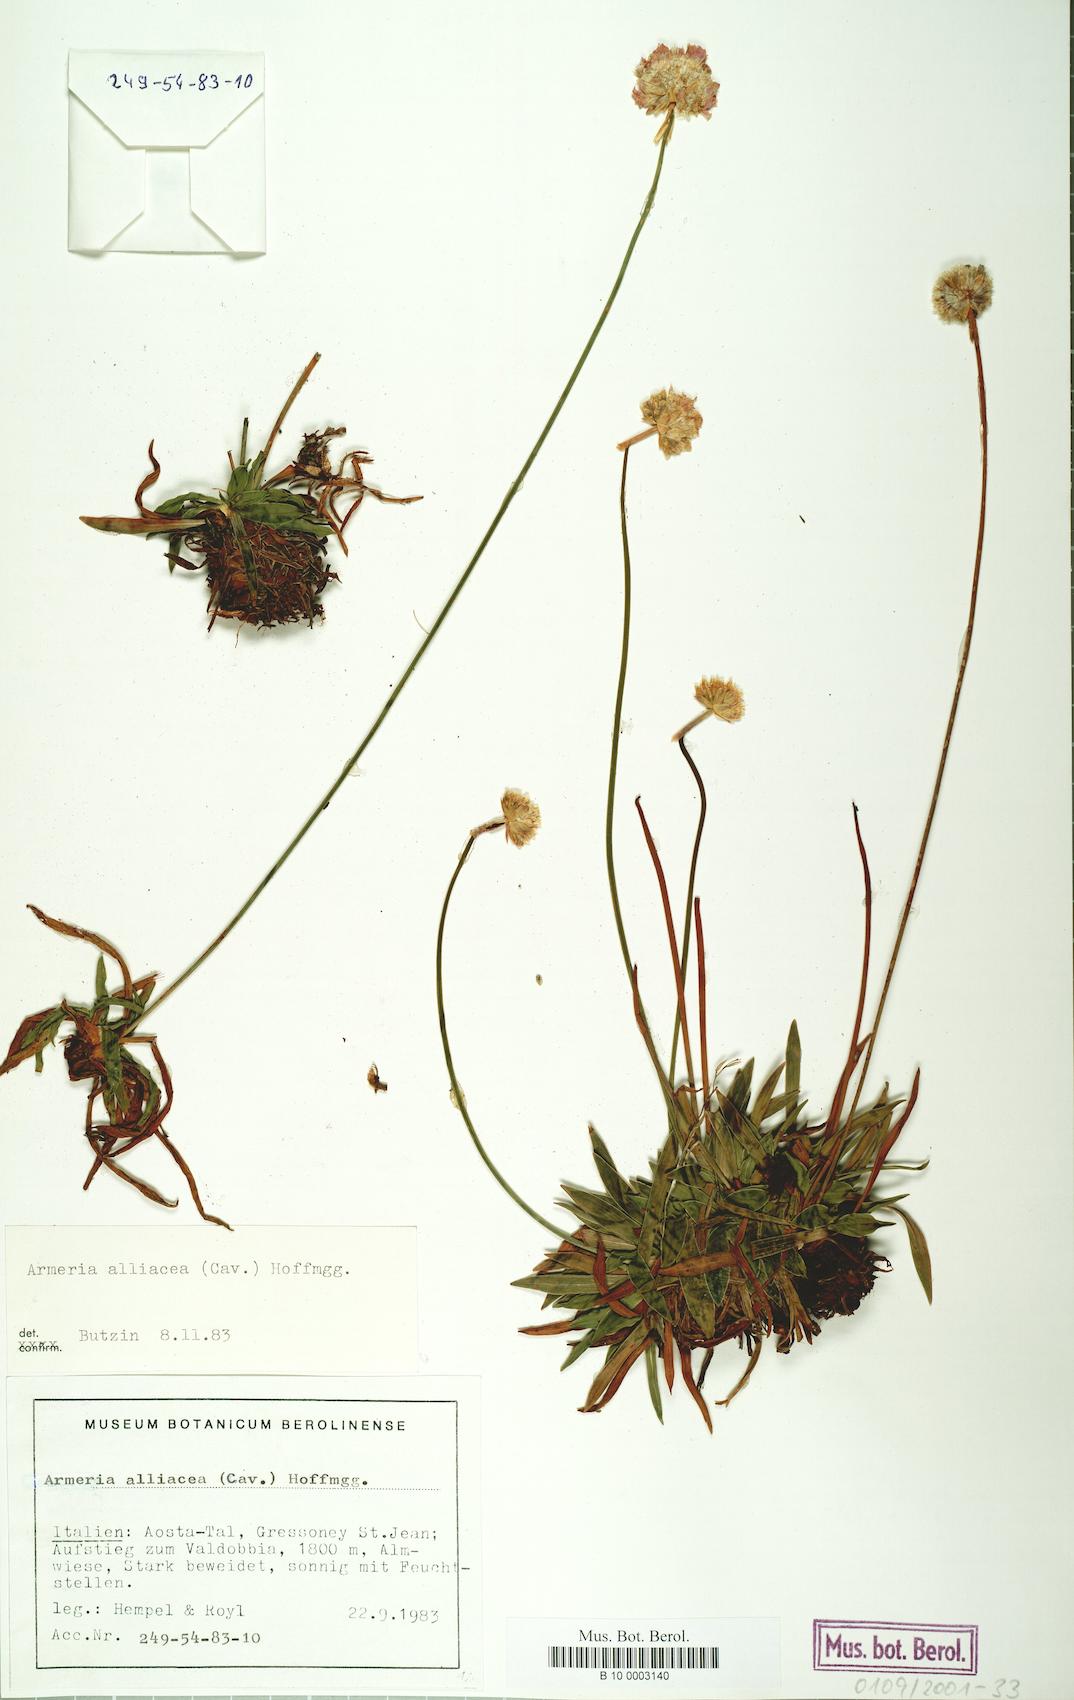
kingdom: Plantae
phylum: Tracheophyta
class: Magnoliopsida
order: Caryophyllales
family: Plumbaginaceae
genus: Armeria
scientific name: Armeria alliacea
